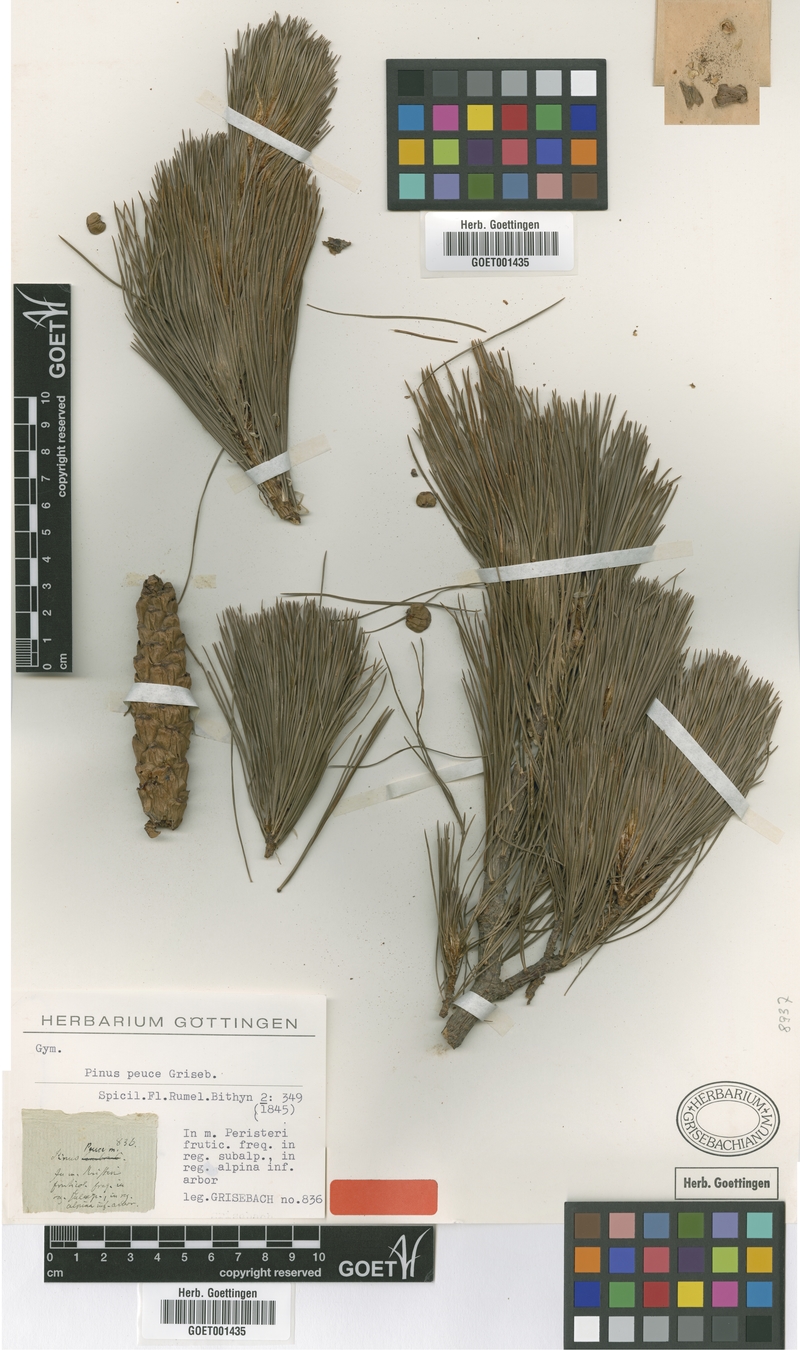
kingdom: Plantae
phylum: Tracheophyta
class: Pinopsida
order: Pinales
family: Pinaceae
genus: Pinus
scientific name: Pinus peuce
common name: Macedonian pine
